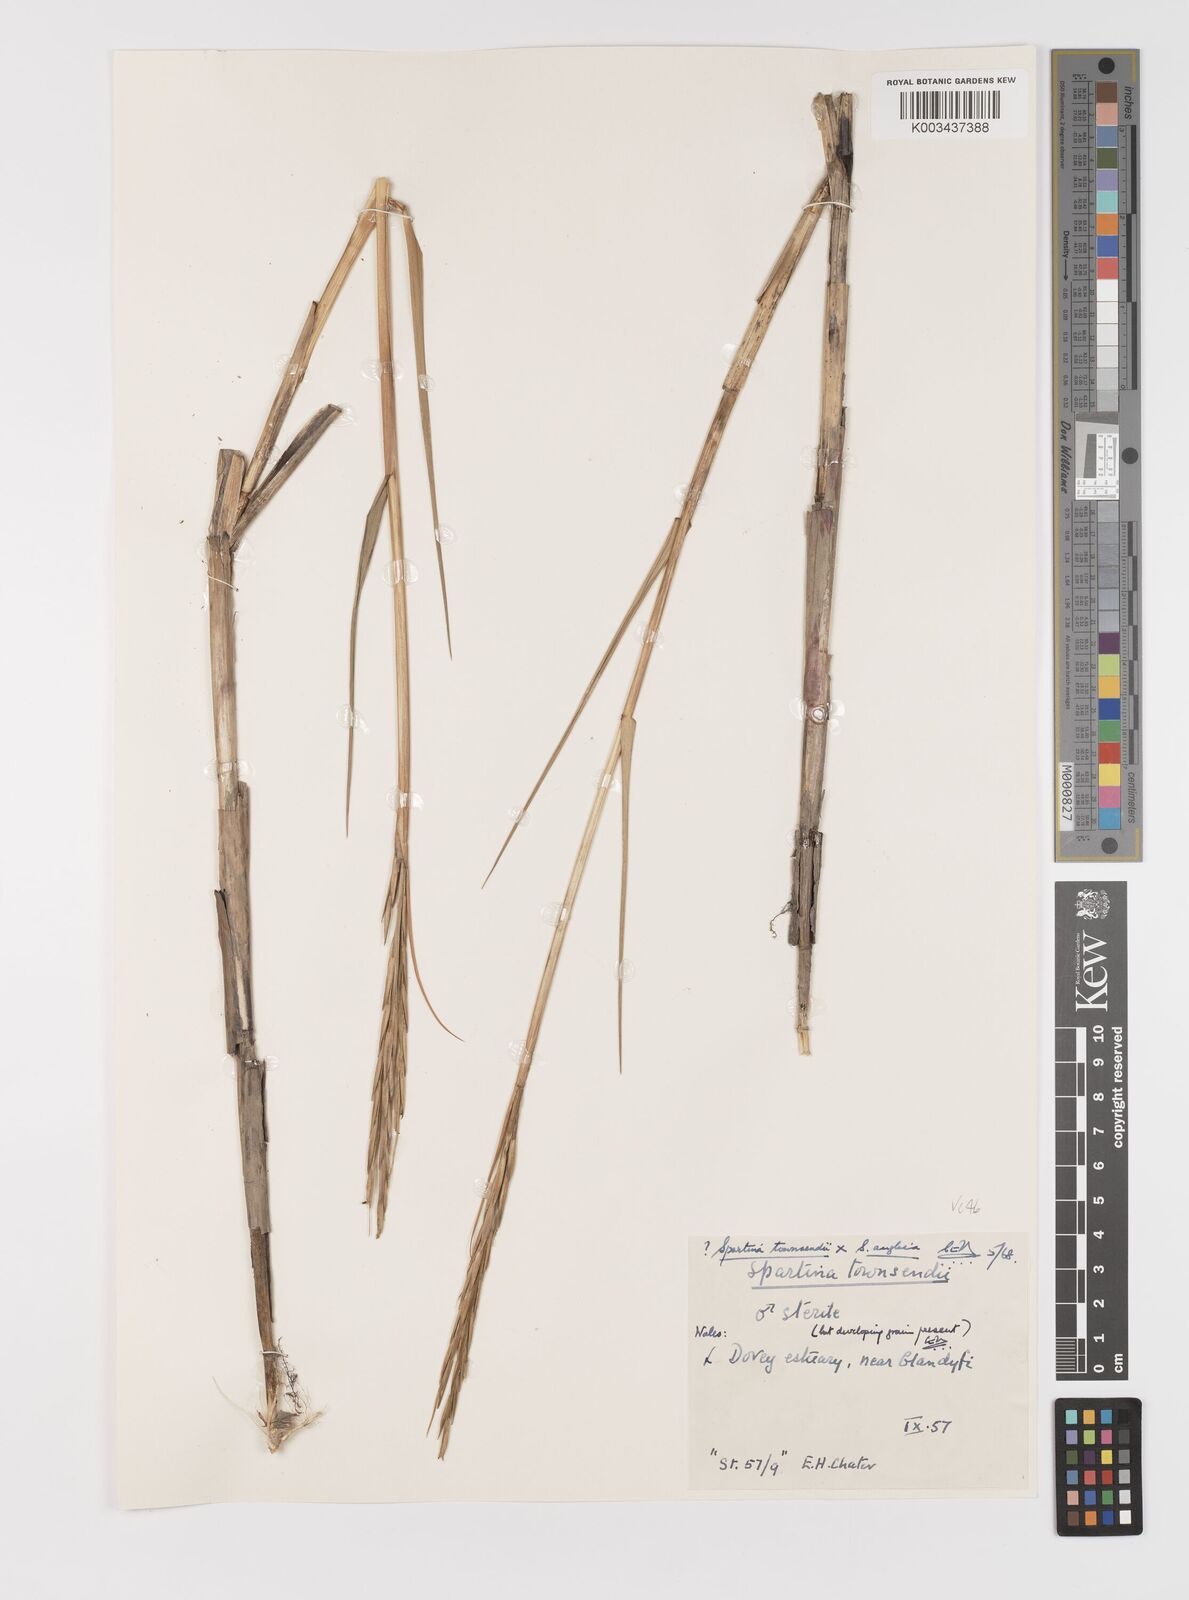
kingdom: Plantae
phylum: Tracheophyta
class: Liliopsida
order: Poales
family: Poaceae
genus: Sporobolus
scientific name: Sporobolus anglicus
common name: English cordgrass
